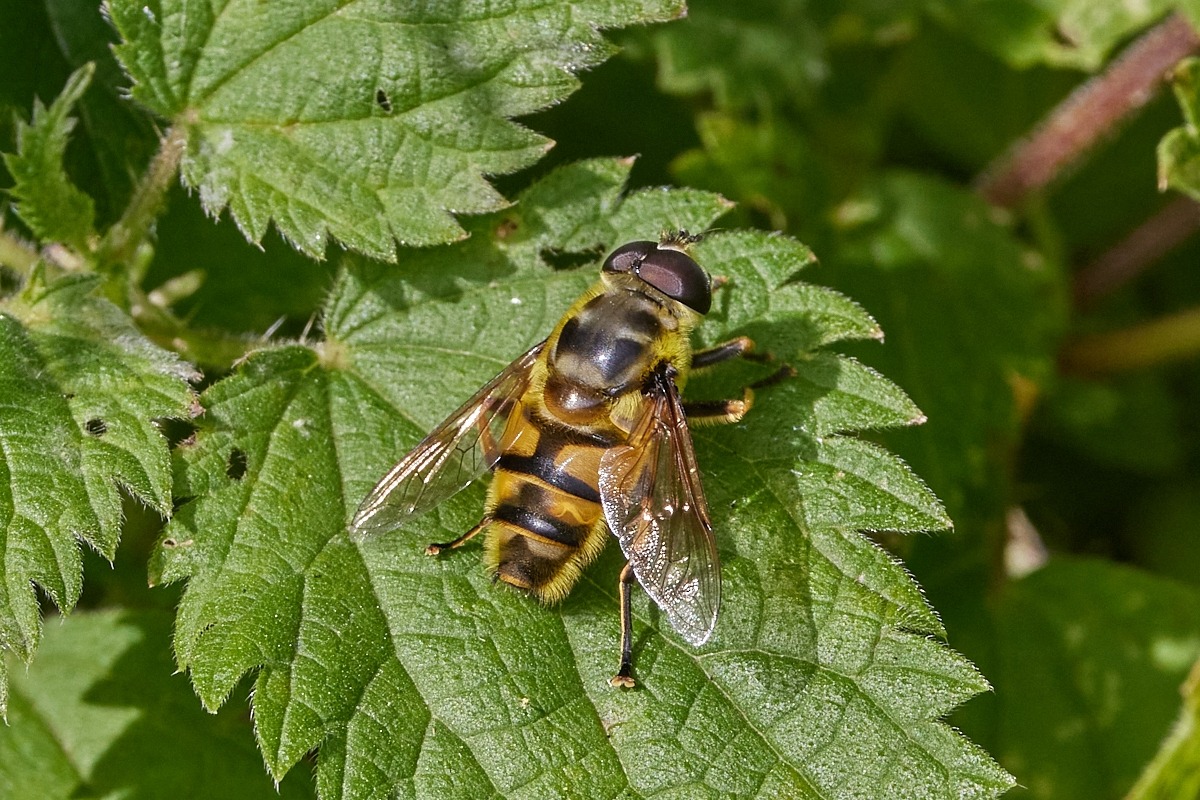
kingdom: Animalia
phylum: Arthropoda
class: Insecta
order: Diptera
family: Syrphidae
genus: Myathropa
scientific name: Myathropa florea
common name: Dødningehoved-svirreflue
